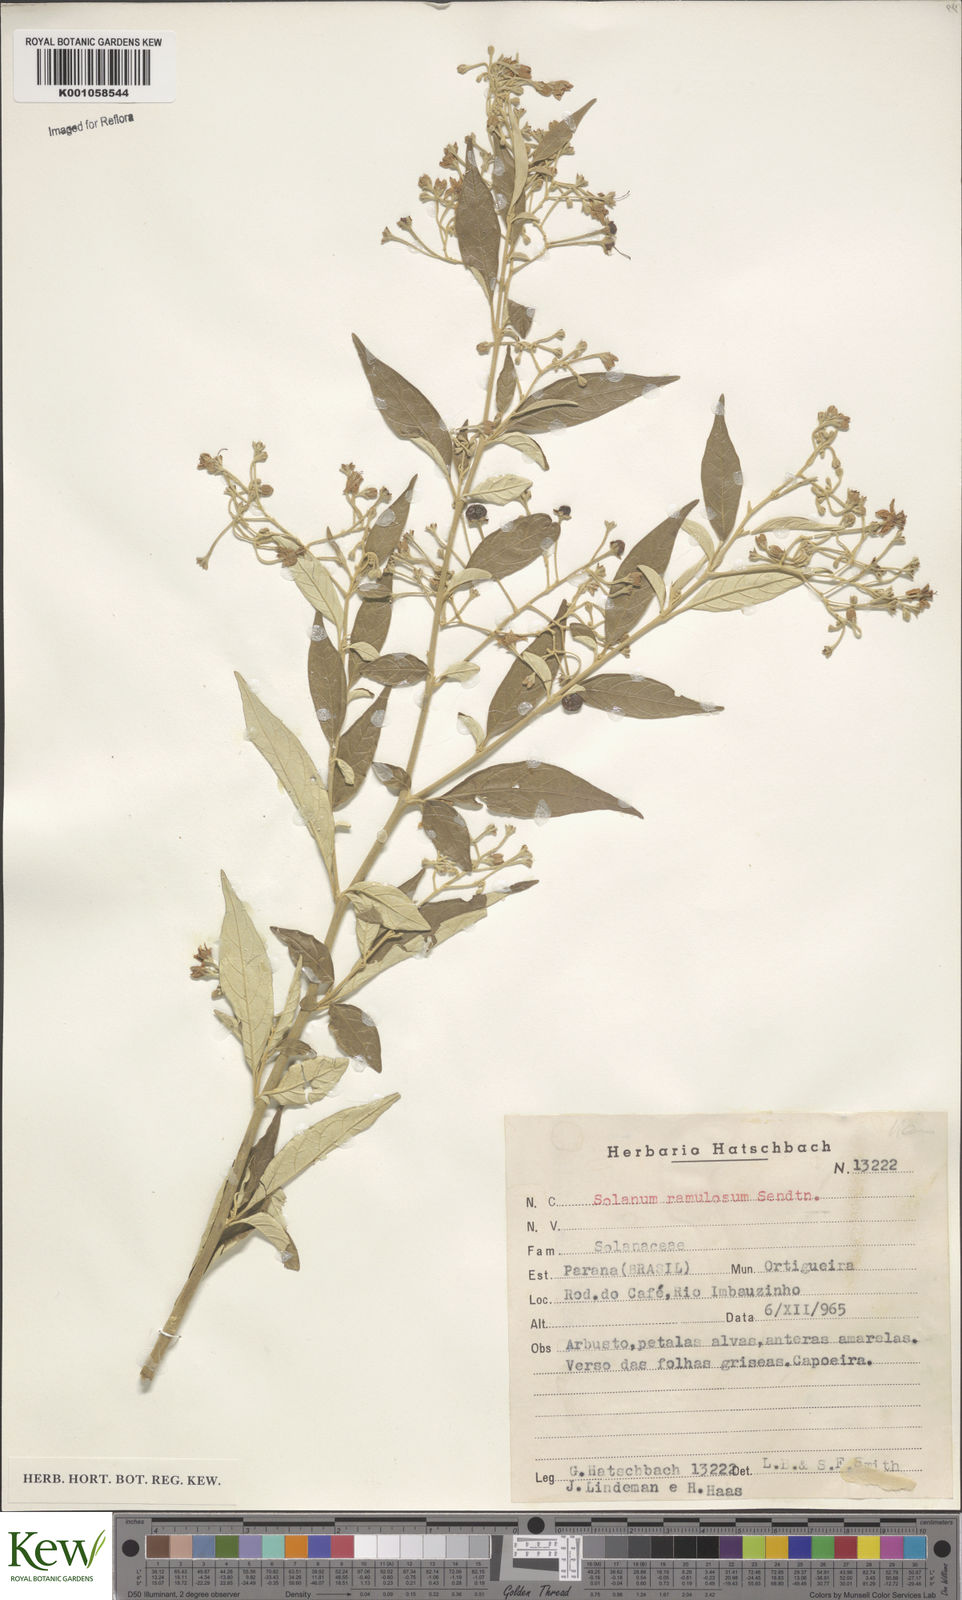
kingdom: Plantae
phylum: Tracheophyta
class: Magnoliopsida
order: Solanales
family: Solanaceae
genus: Solanum
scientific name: Solanum ramulosum
